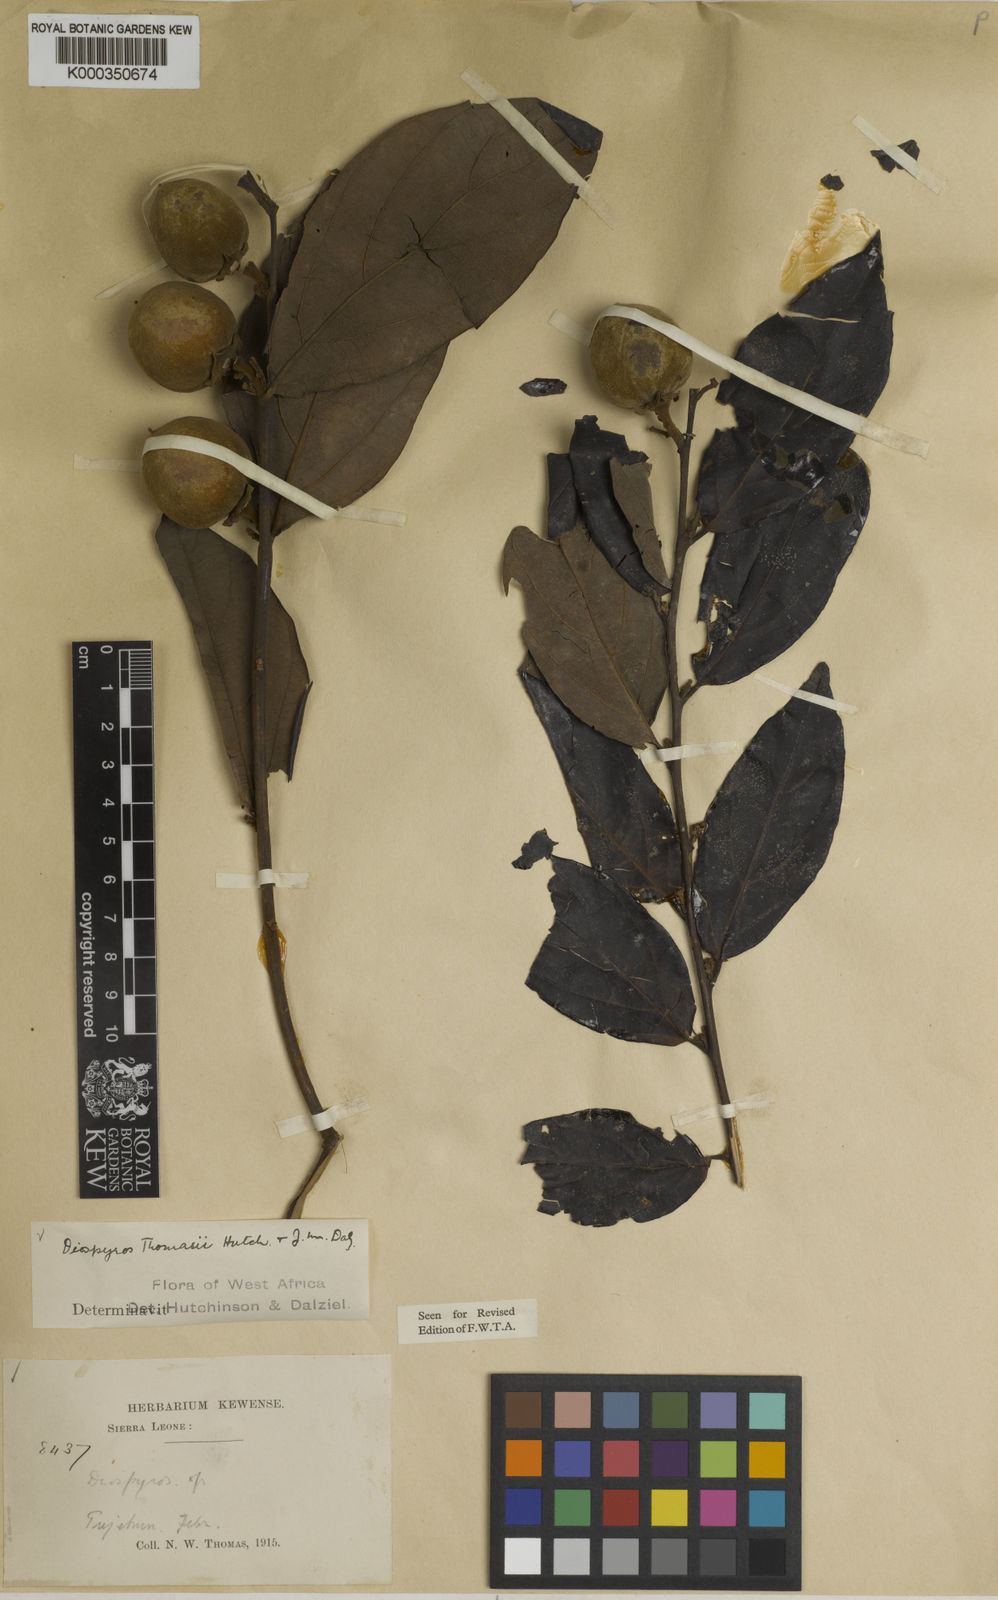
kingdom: Plantae
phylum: Tracheophyta
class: Magnoliopsida
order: Ericales
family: Ebenaceae
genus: Diospyros
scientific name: Diospyros thomasii
